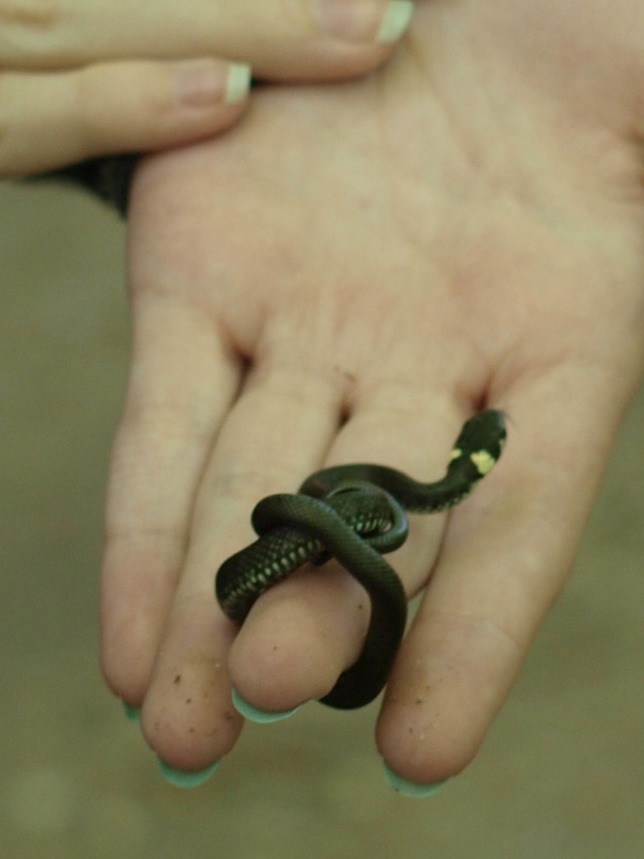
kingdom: Animalia
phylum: Chordata
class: Squamata
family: Colubridae
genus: Natrix
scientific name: Natrix natrix
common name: Snog
